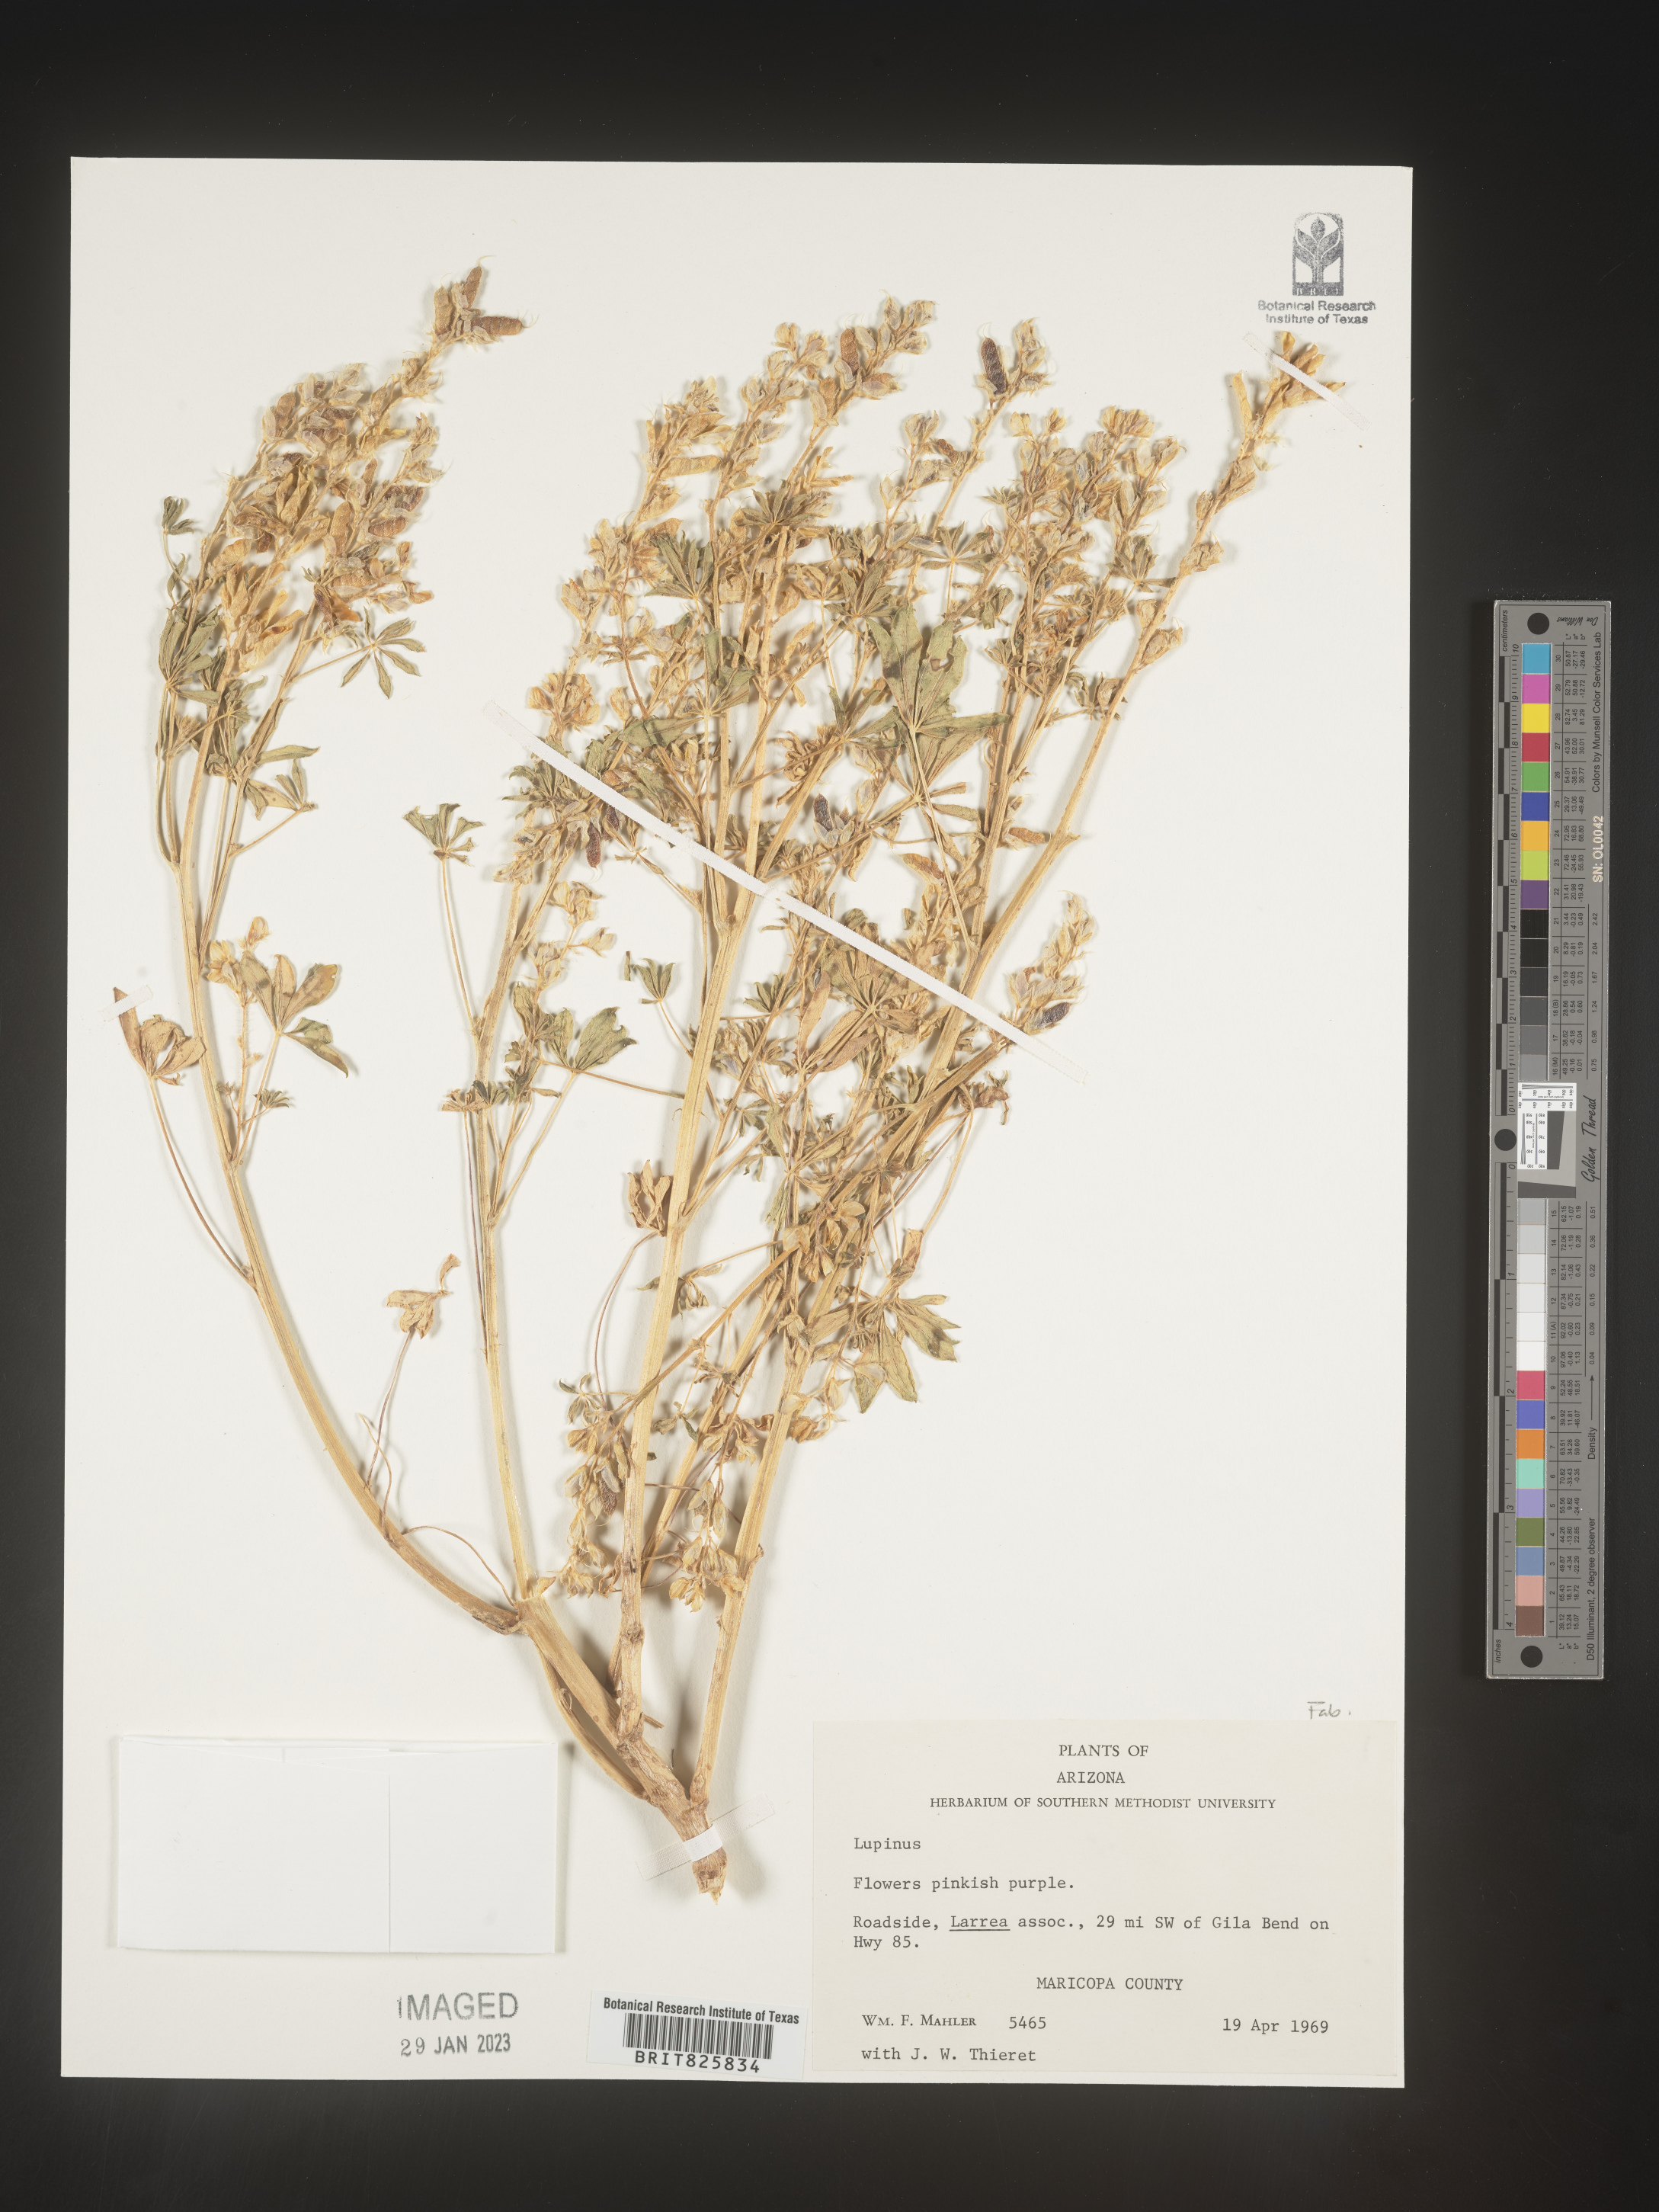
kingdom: Plantae
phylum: Tracheophyta
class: Magnoliopsida
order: Fabales
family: Fabaceae
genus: Lupinus
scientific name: Lupinus
